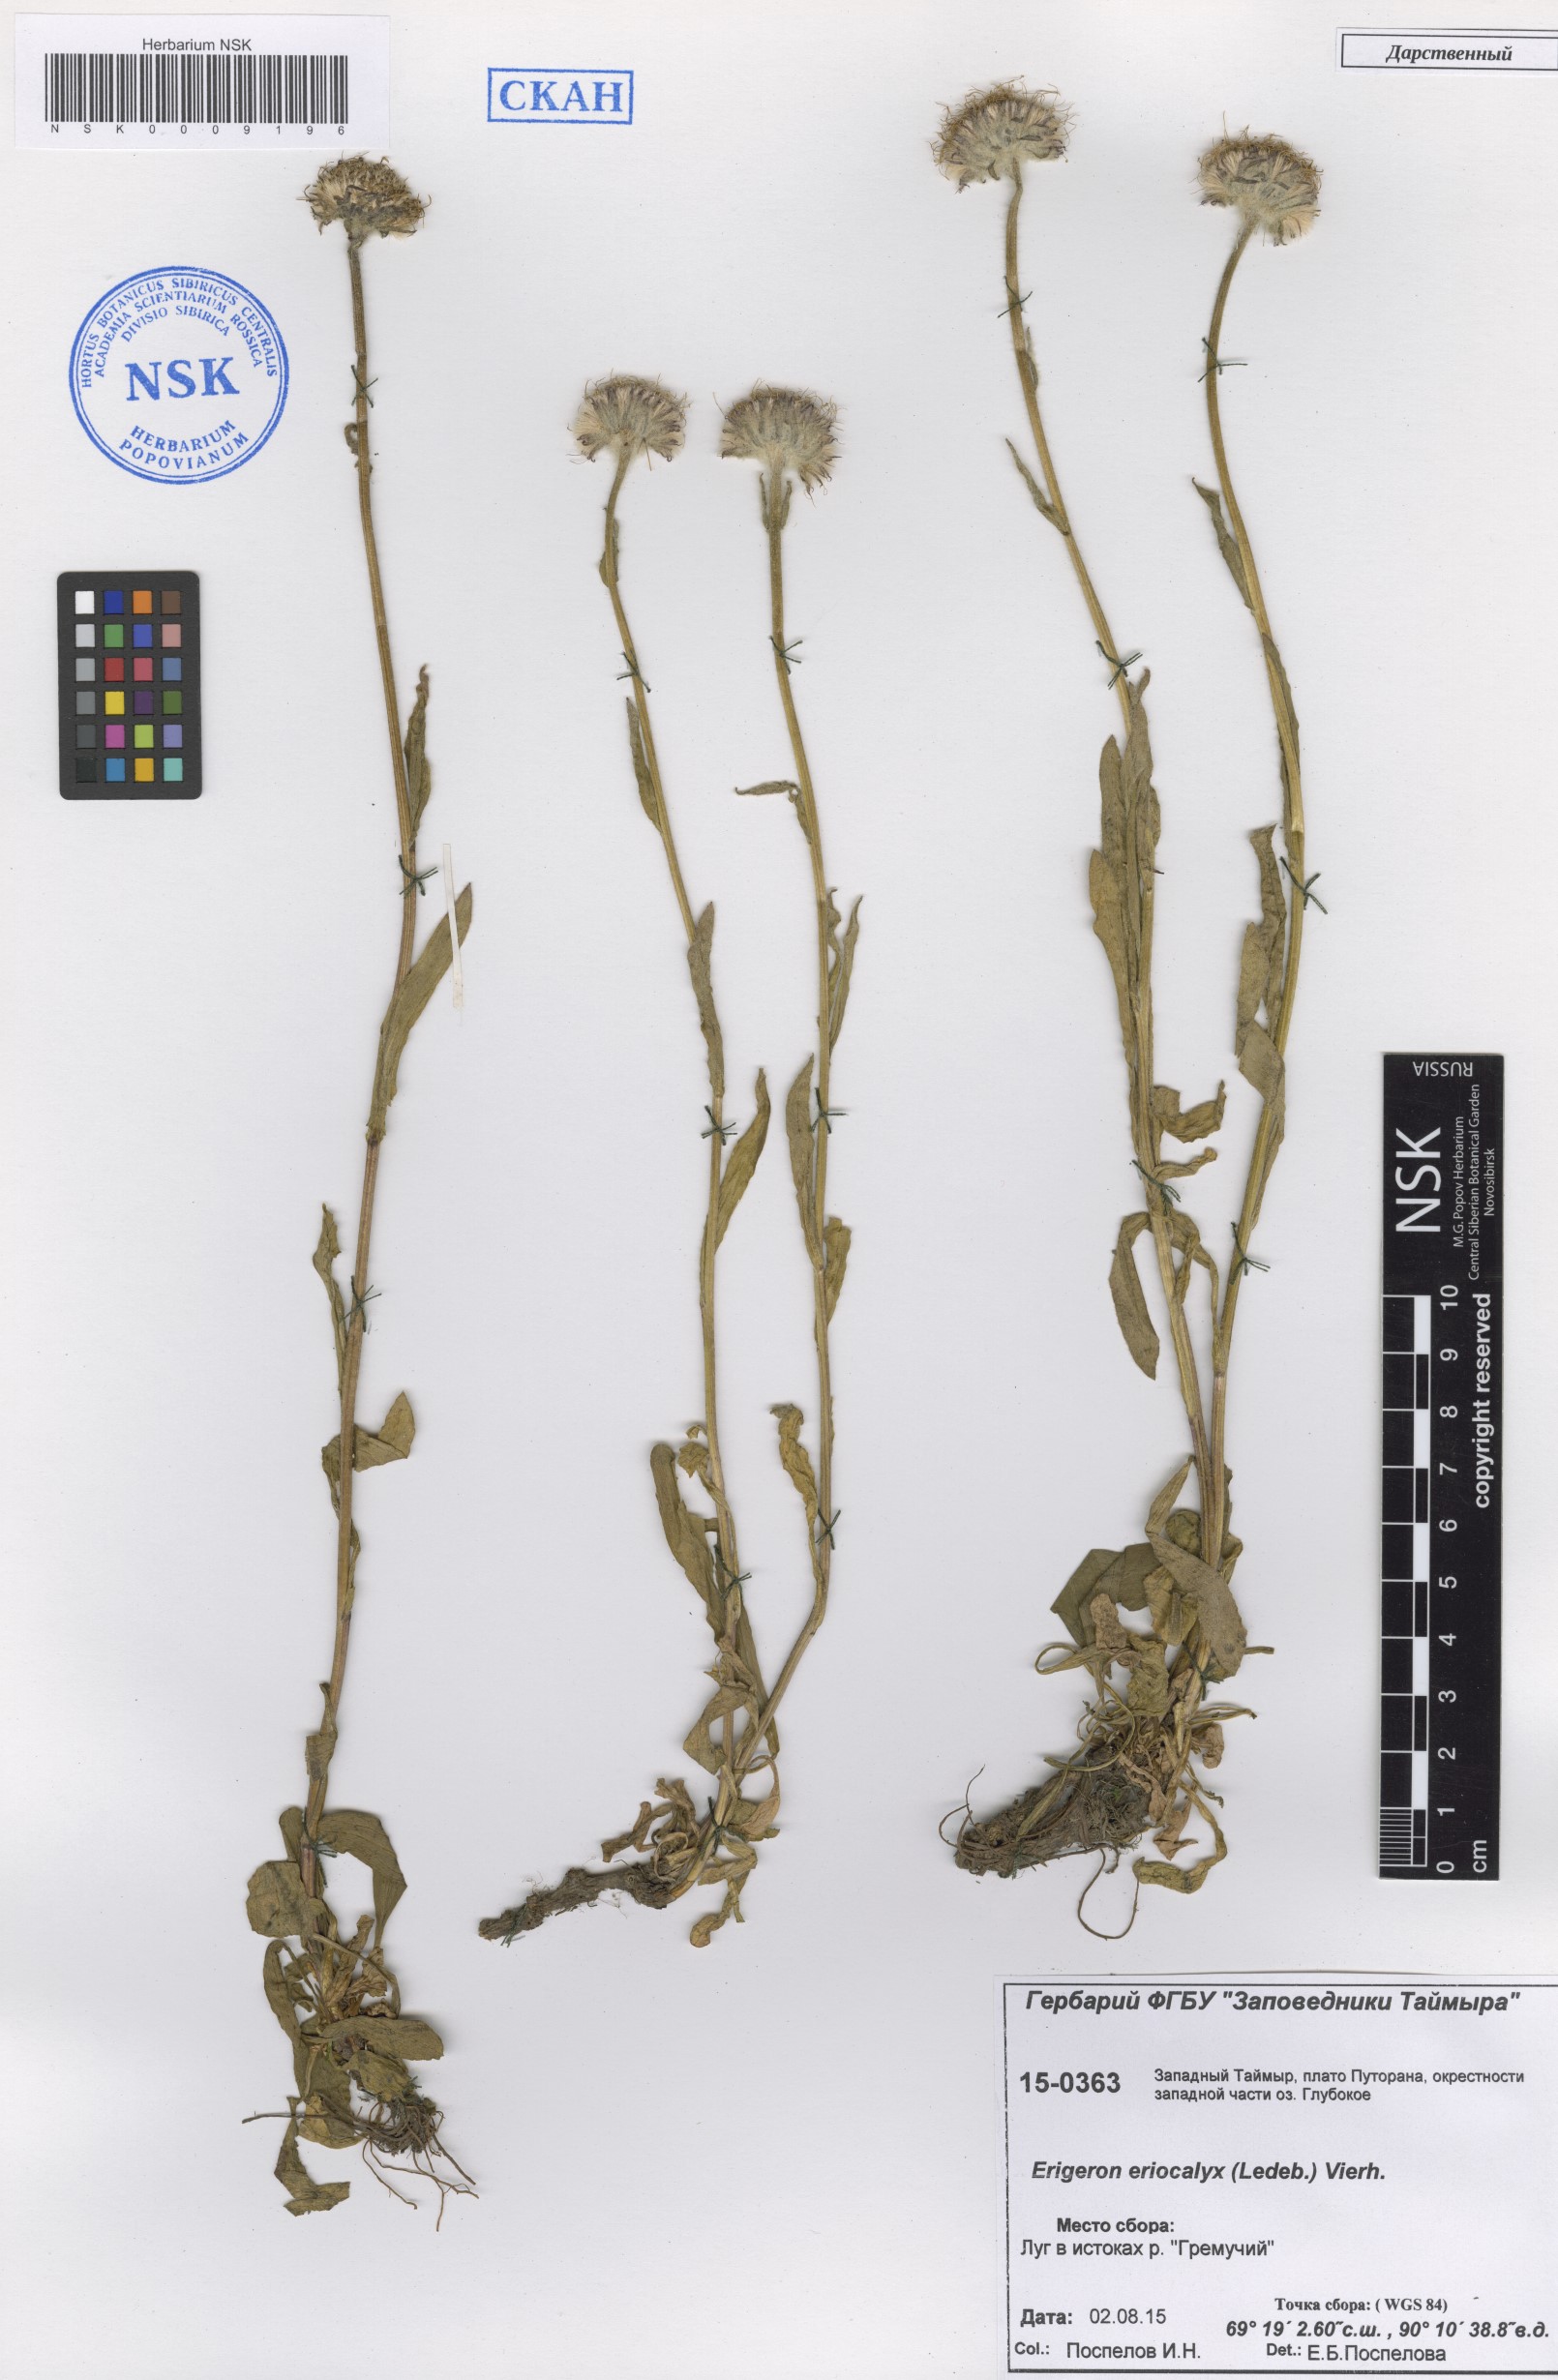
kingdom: Plantae
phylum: Tracheophyta
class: Magnoliopsida
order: Asterales
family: Asteraceae
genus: Erigeron
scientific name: Erigeron eriocalyx
